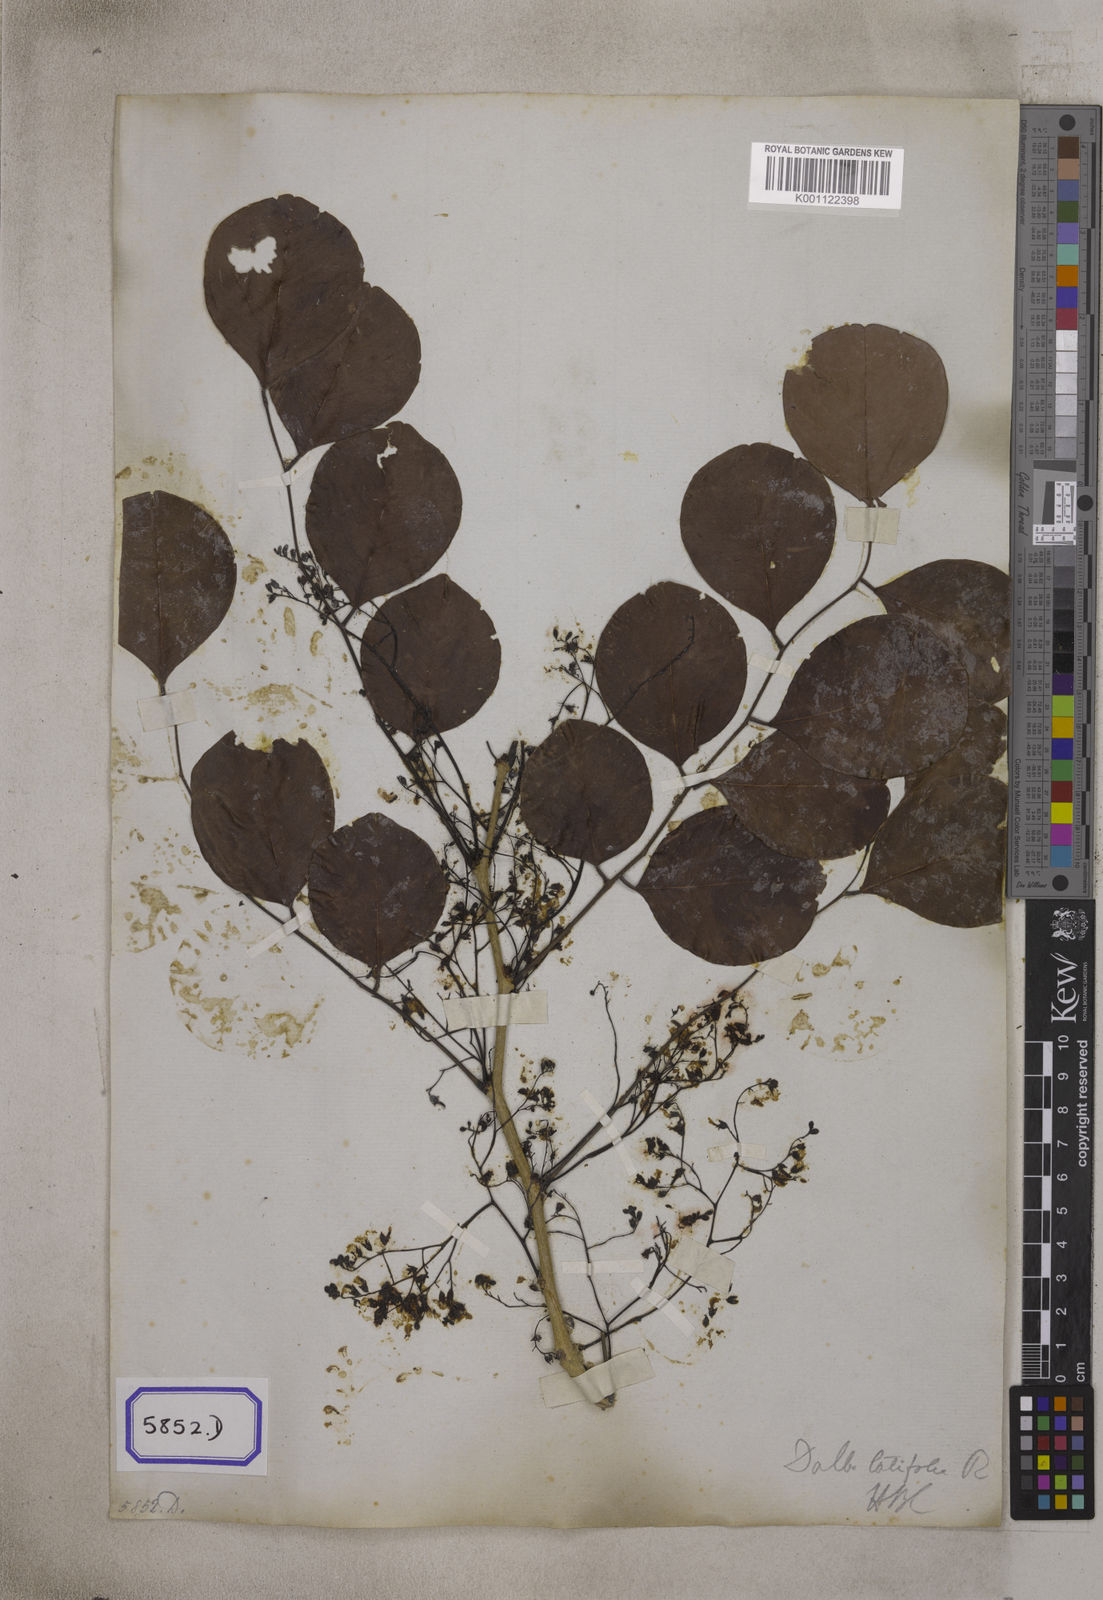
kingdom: Plantae
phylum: Tracheophyta
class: Magnoliopsida
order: Fabales
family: Fabaceae
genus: Dalbergia
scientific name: Dalbergia latifolia
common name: Bombay blackwood
